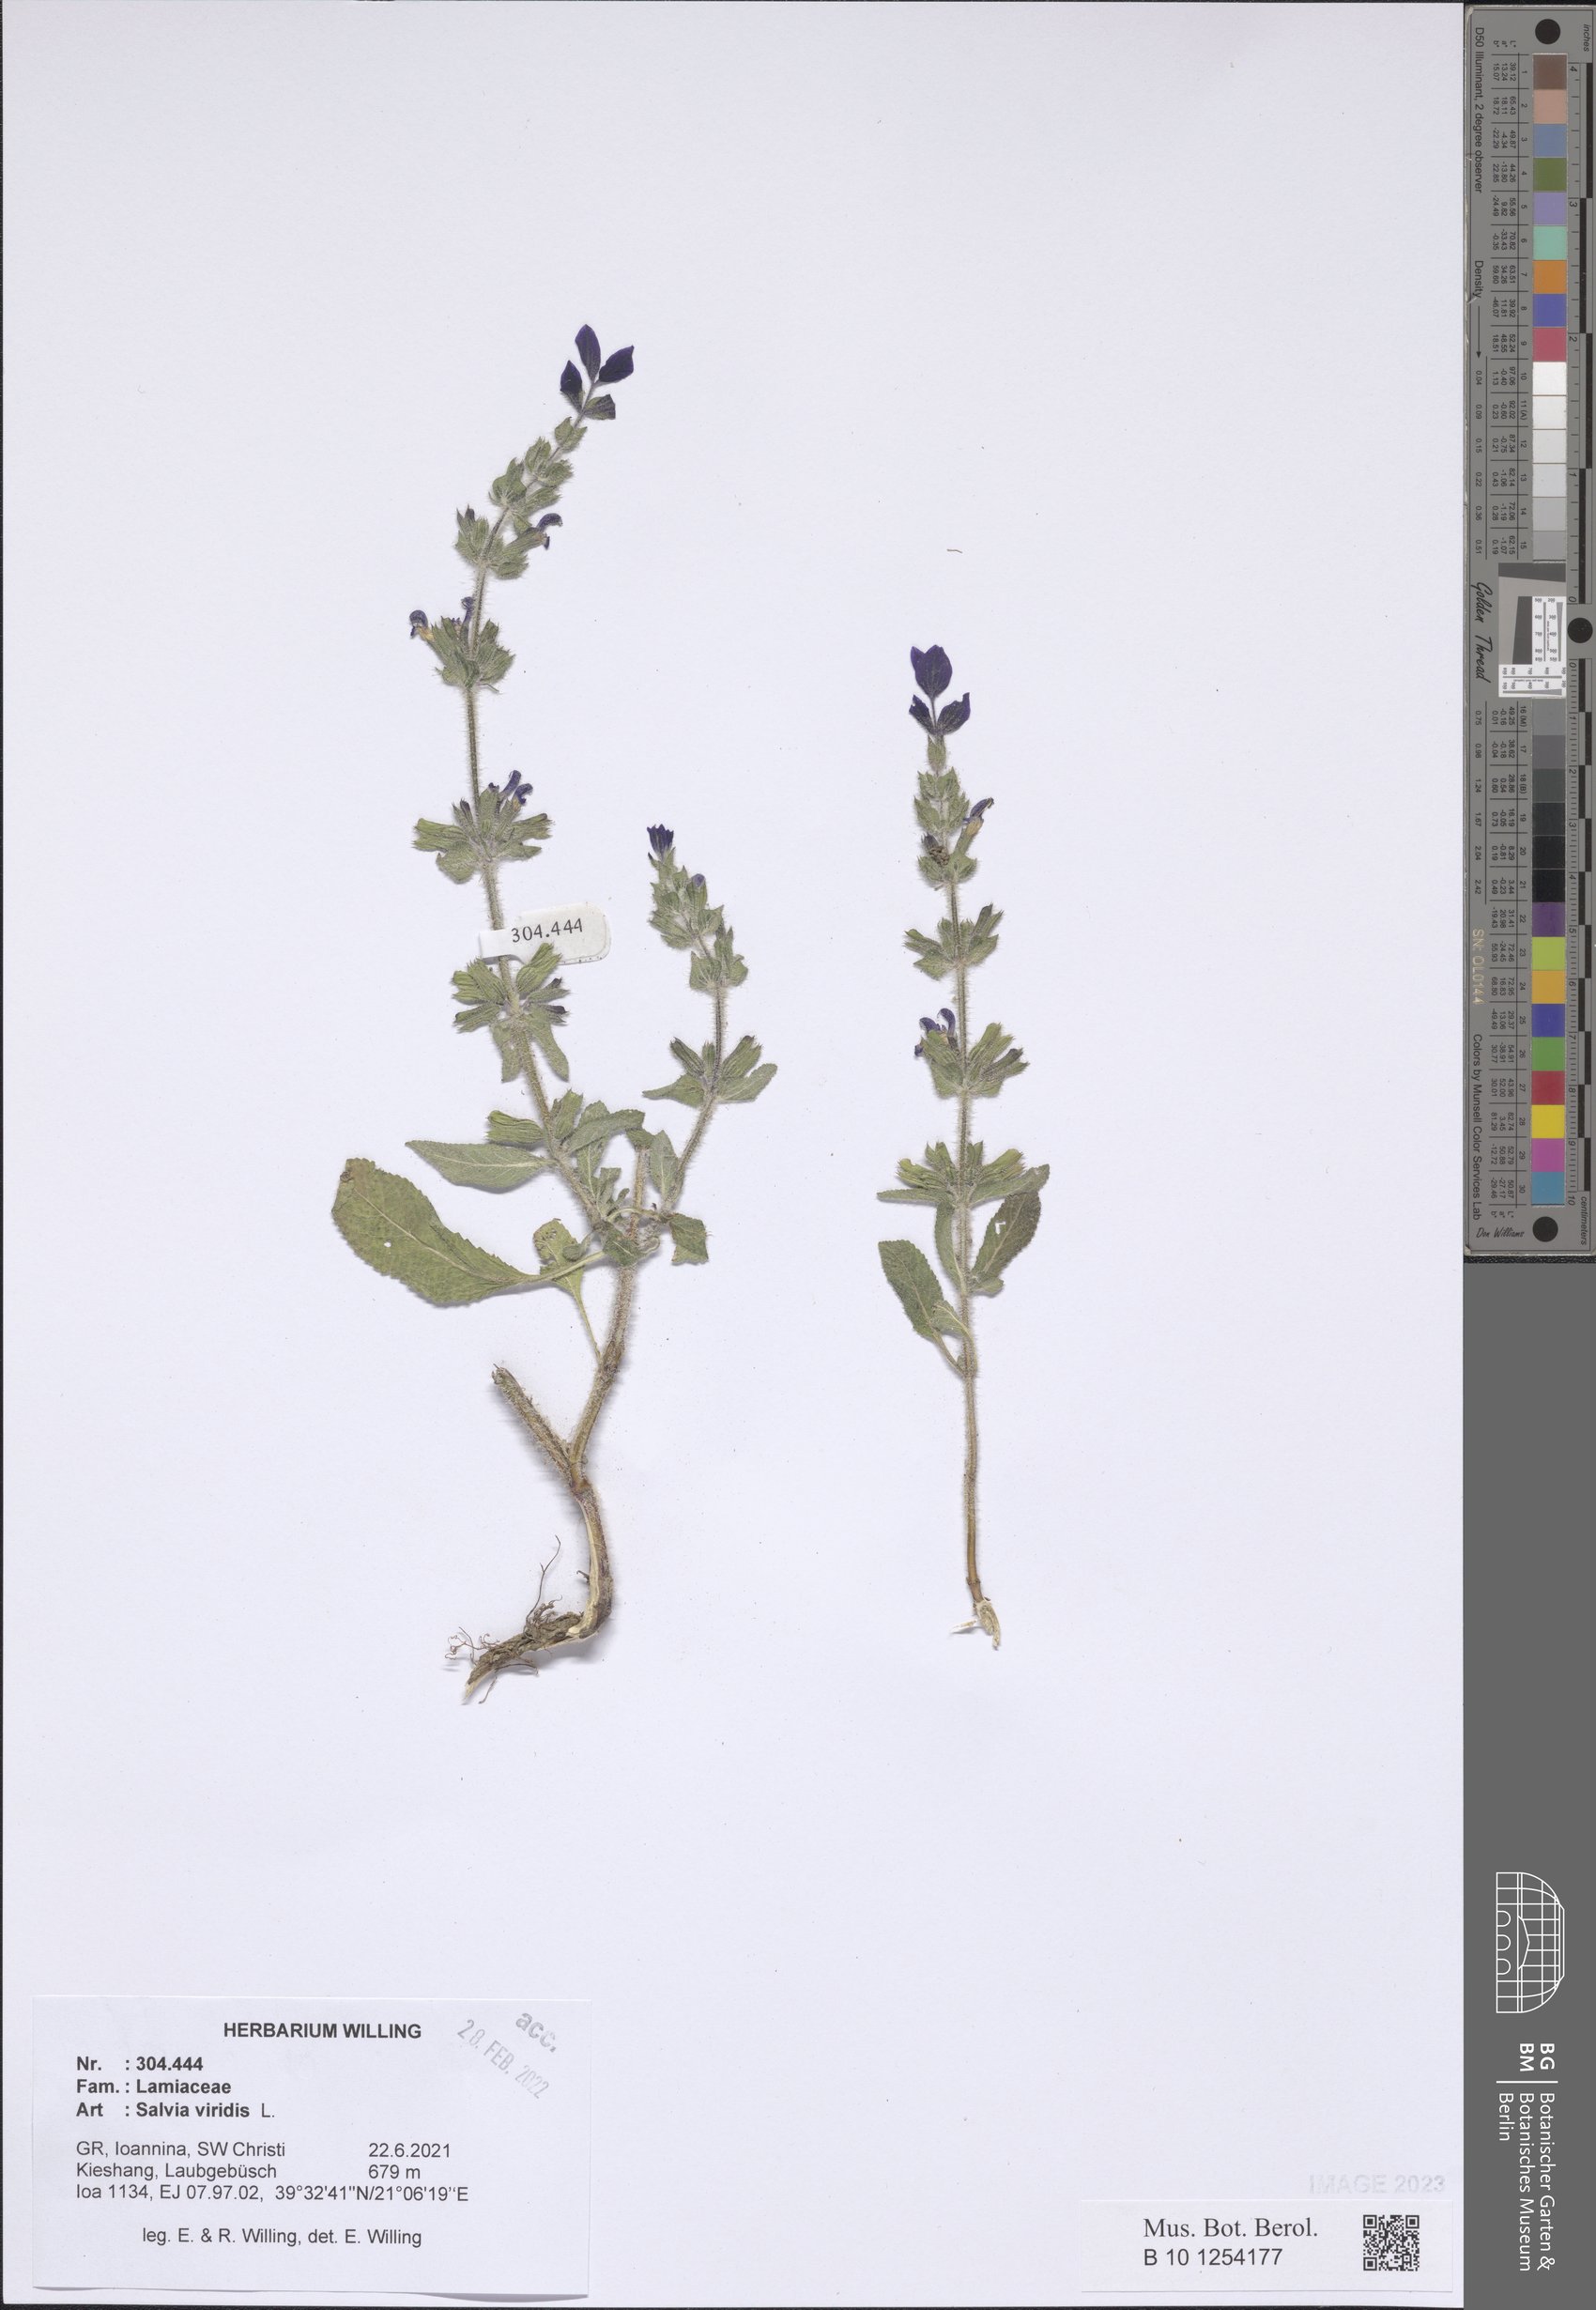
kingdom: Plantae
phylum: Tracheophyta
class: Magnoliopsida
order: Lamiales
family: Lamiaceae
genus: Salvia
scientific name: Salvia viridis
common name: Annual clary
